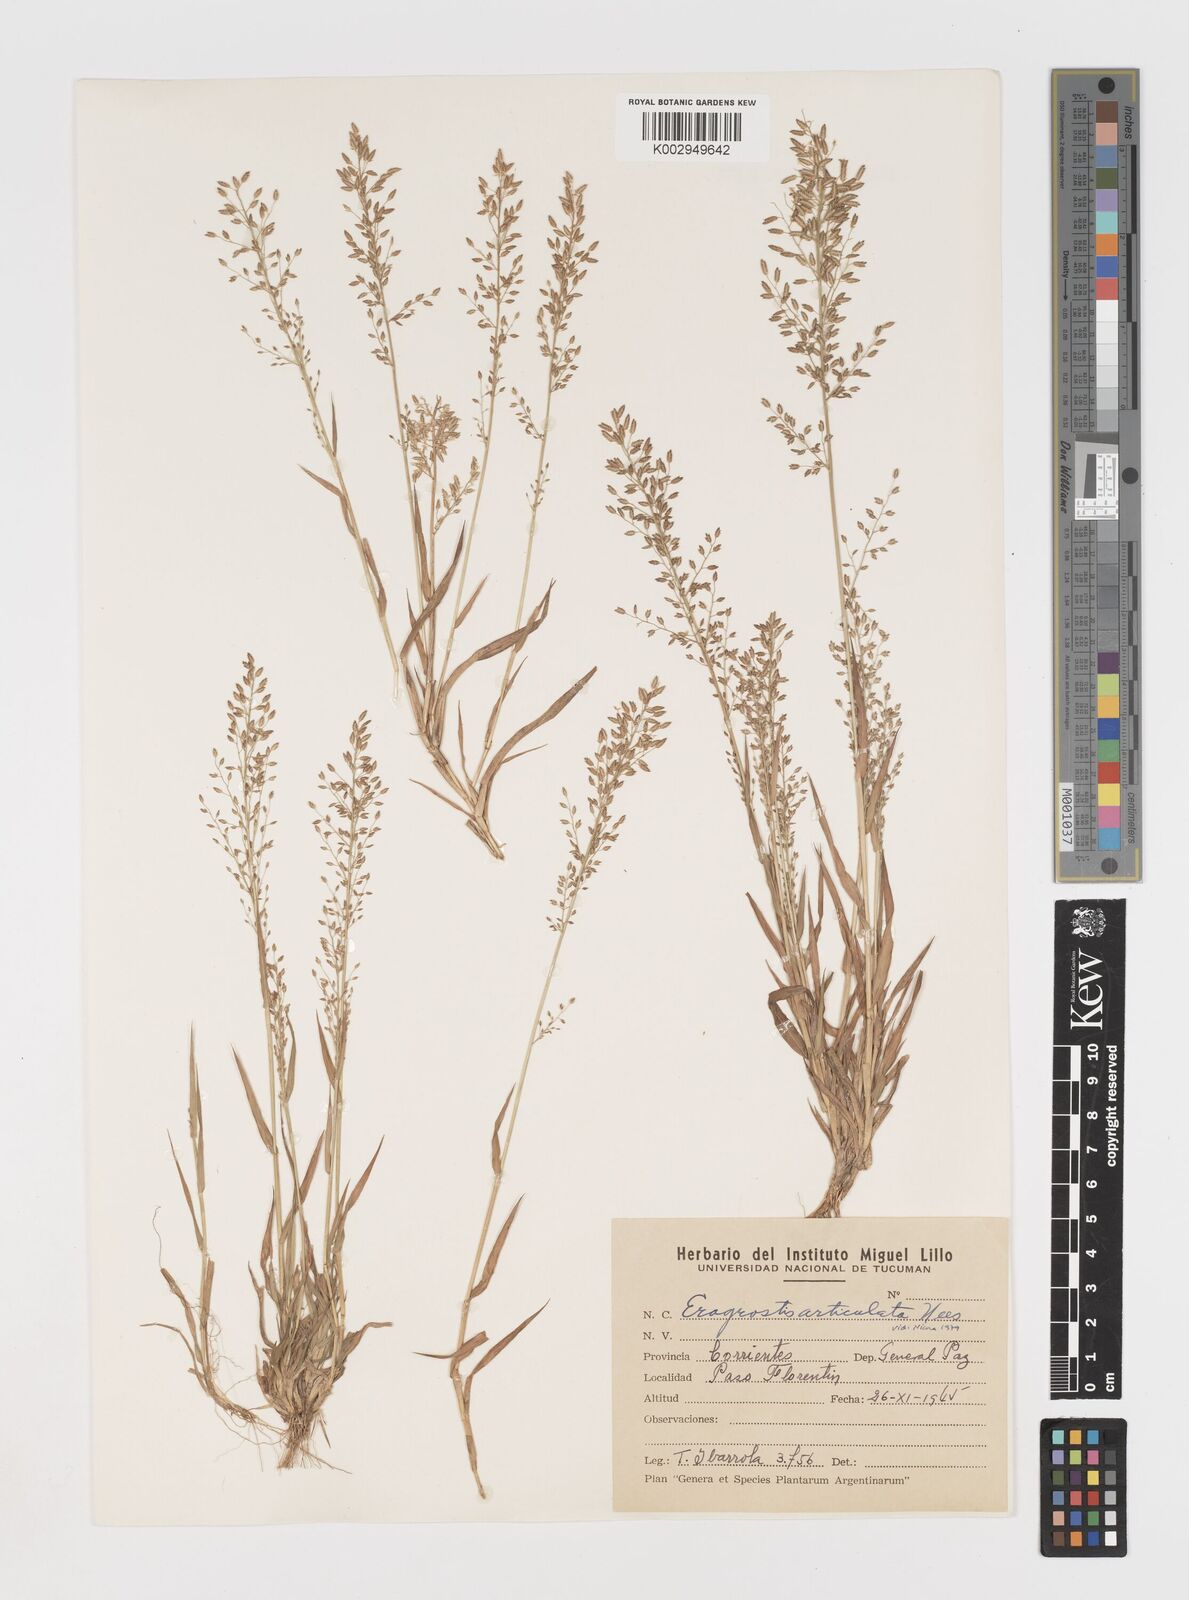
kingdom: Plantae
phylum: Tracheophyta
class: Liliopsida
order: Poales
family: Poaceae
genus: Eragrostis
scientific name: Eragrostis articulata
